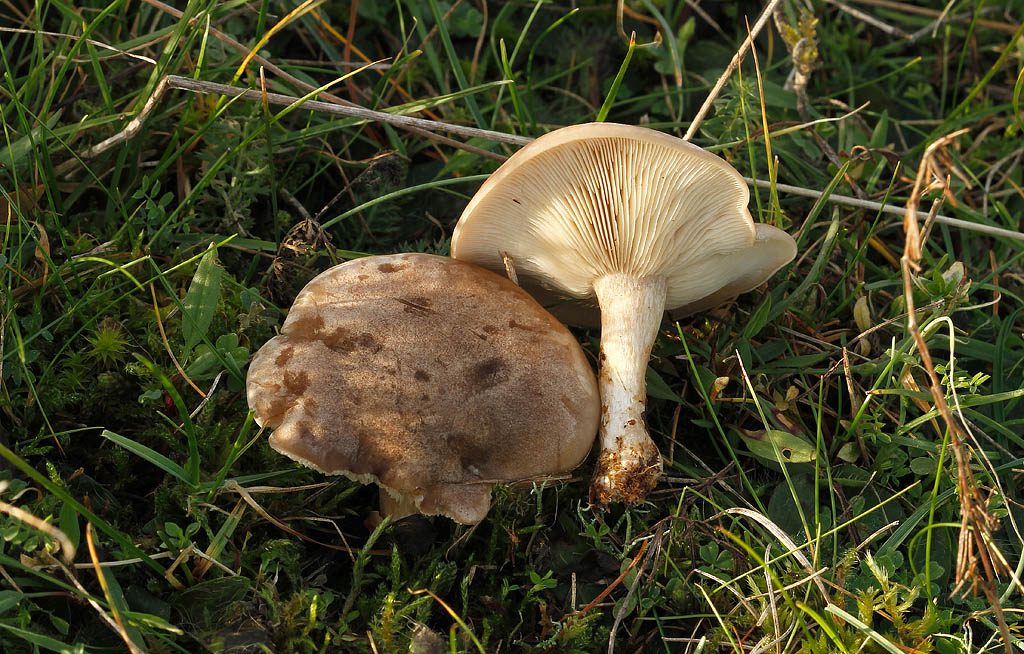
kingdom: Fungi
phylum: Basidiomycota
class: Agaricomycetes
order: Agaricales
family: Tricholomataceae
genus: Lepista
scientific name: Lepista panaeolus
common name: marmoreret hekseringshat
